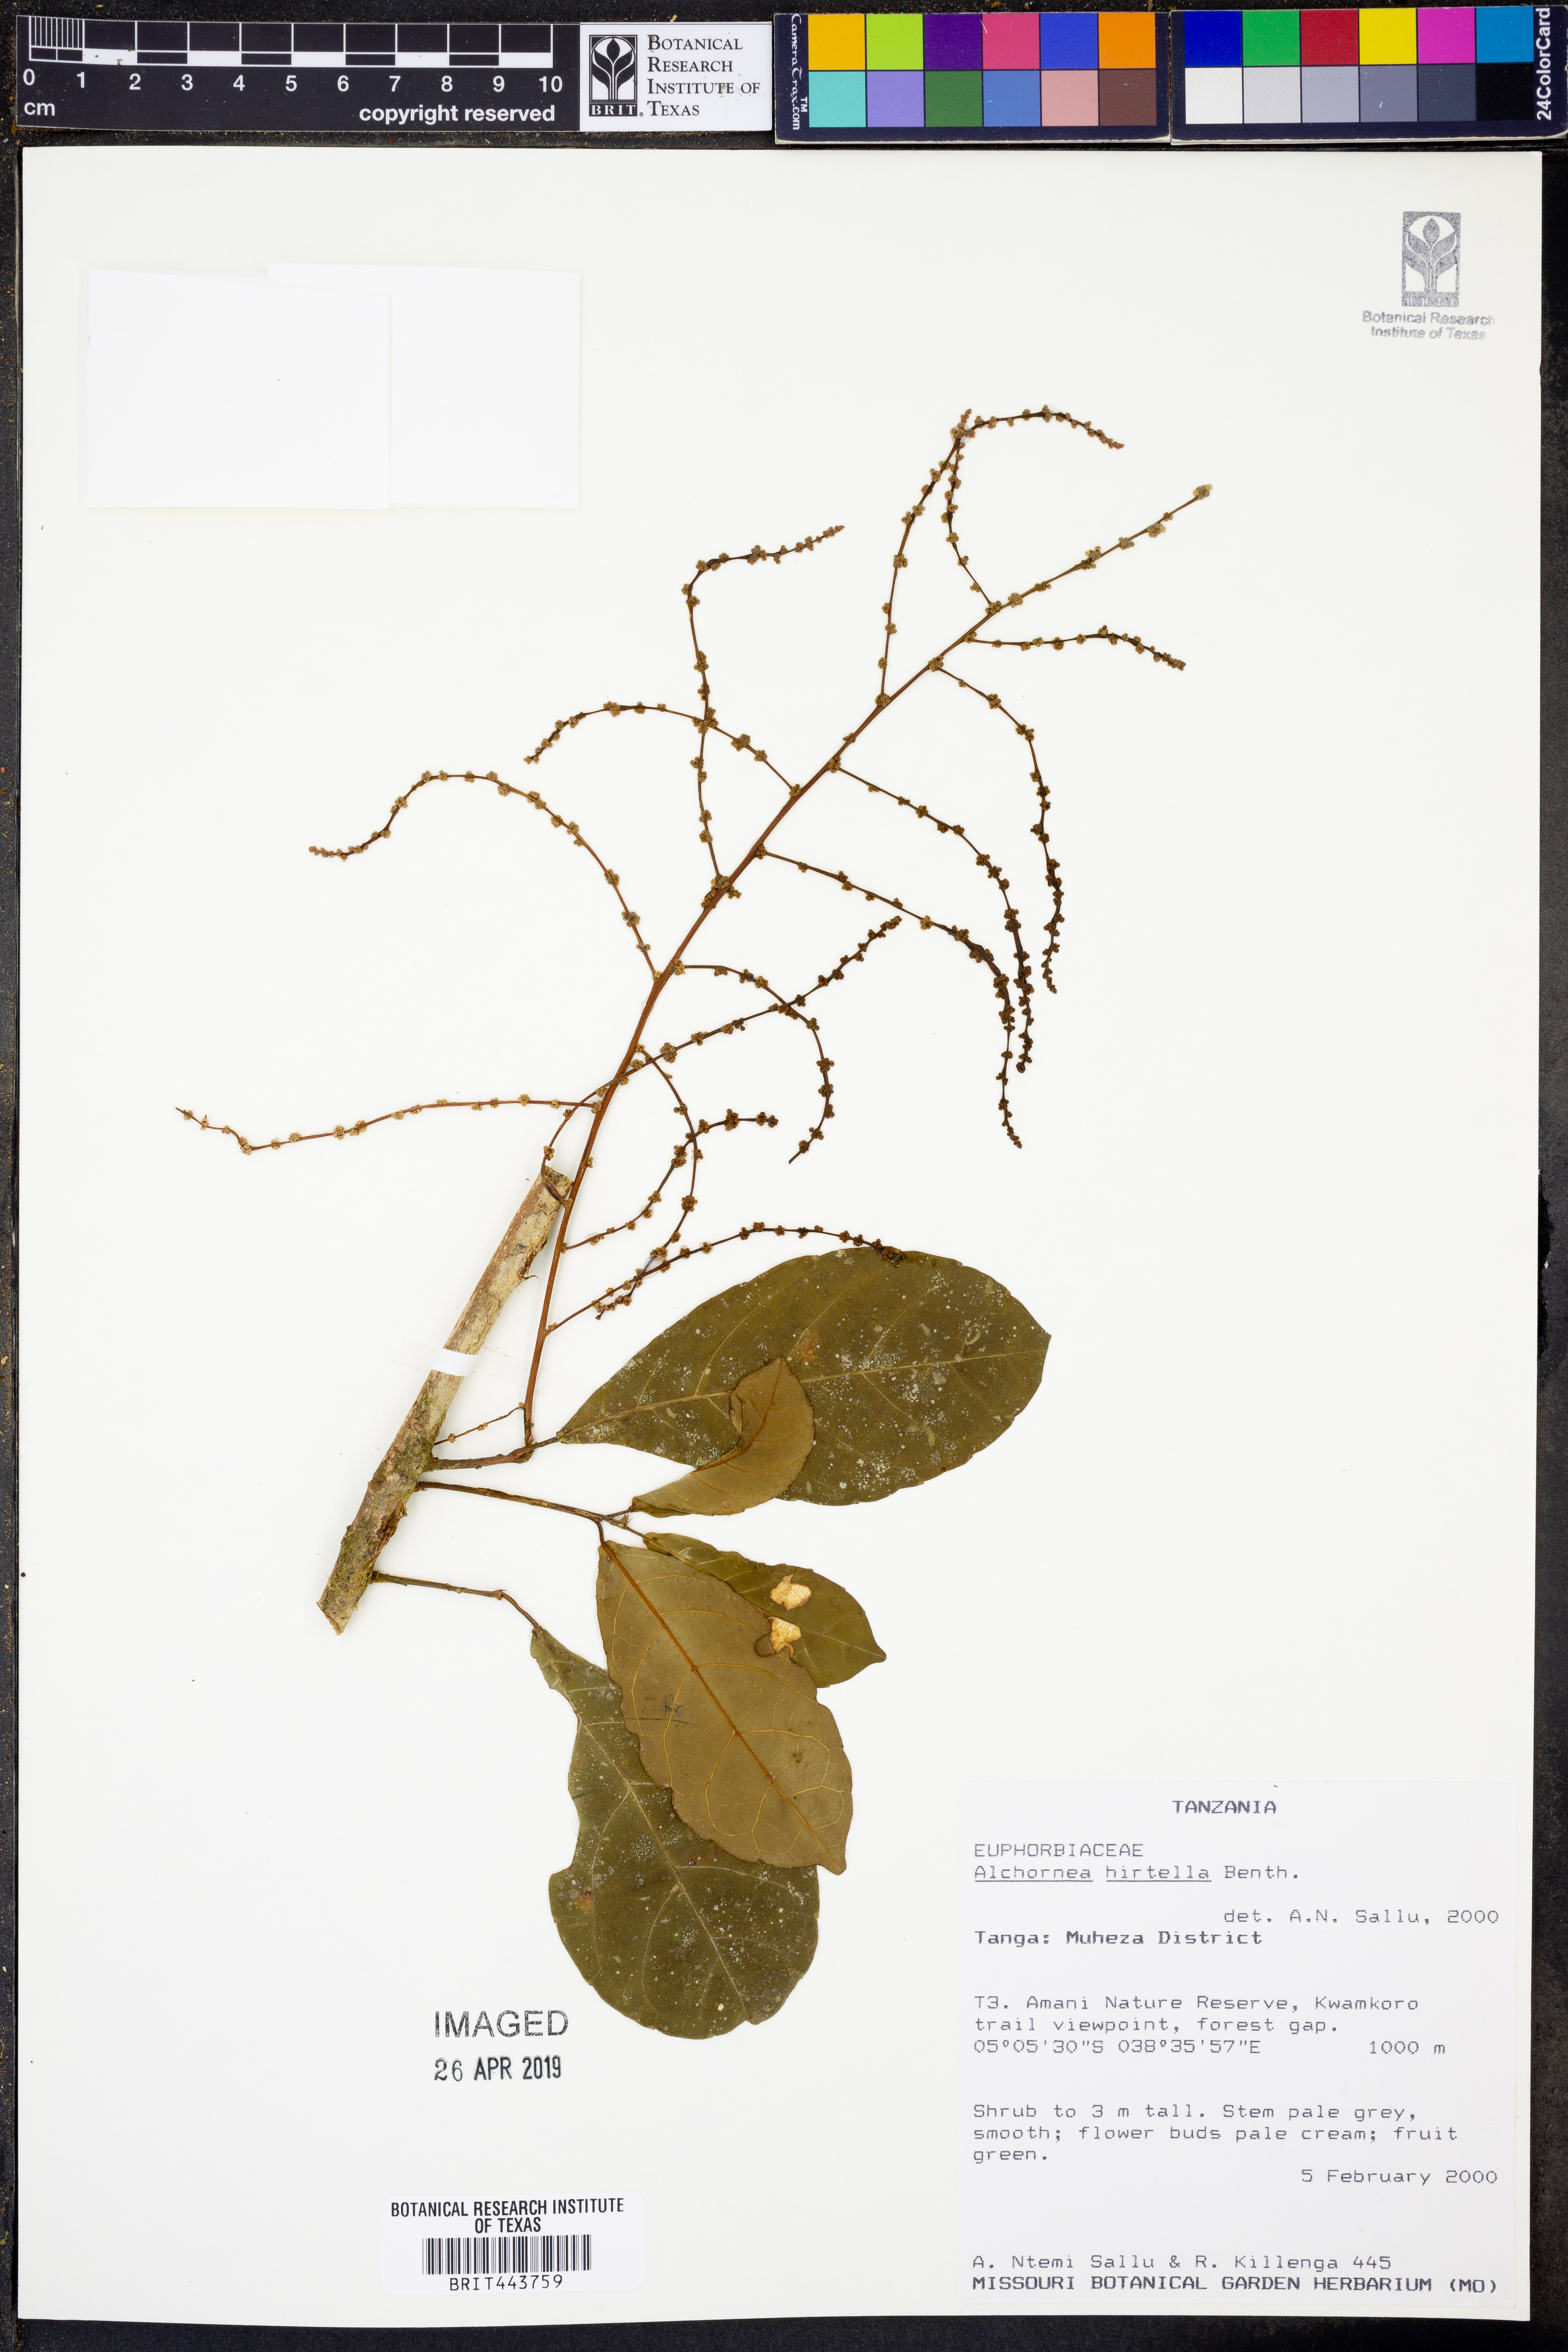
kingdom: Plantae
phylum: Tracheophyta
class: Magnoliopsida
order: Malpighiales
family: Euphorbiaceae
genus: Alchornea
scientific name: Alchornea hirtella
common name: Forest bead-string
